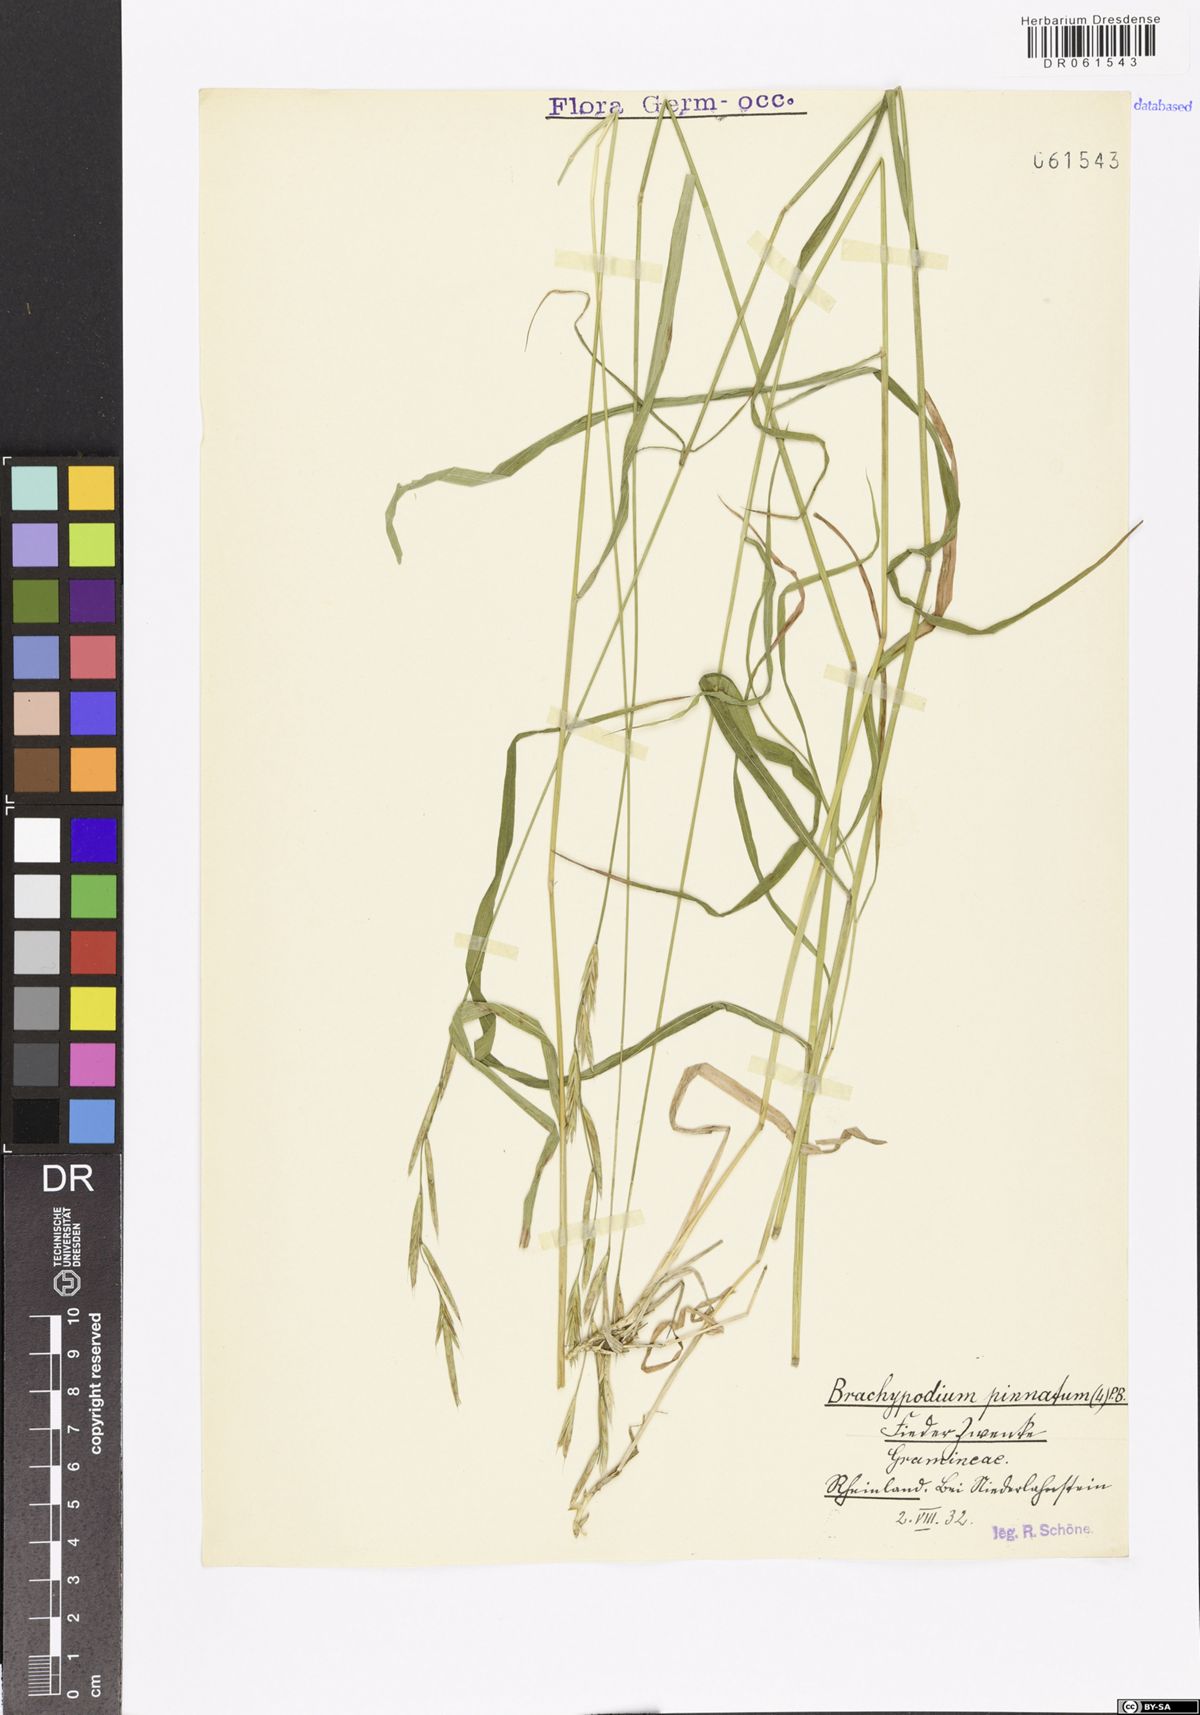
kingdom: Plantae
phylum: Tracheophyta
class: Liliopsida
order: Poales
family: Poaceae
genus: Brachypodium
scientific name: Brachypodium pinnatum
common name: Tor grass
